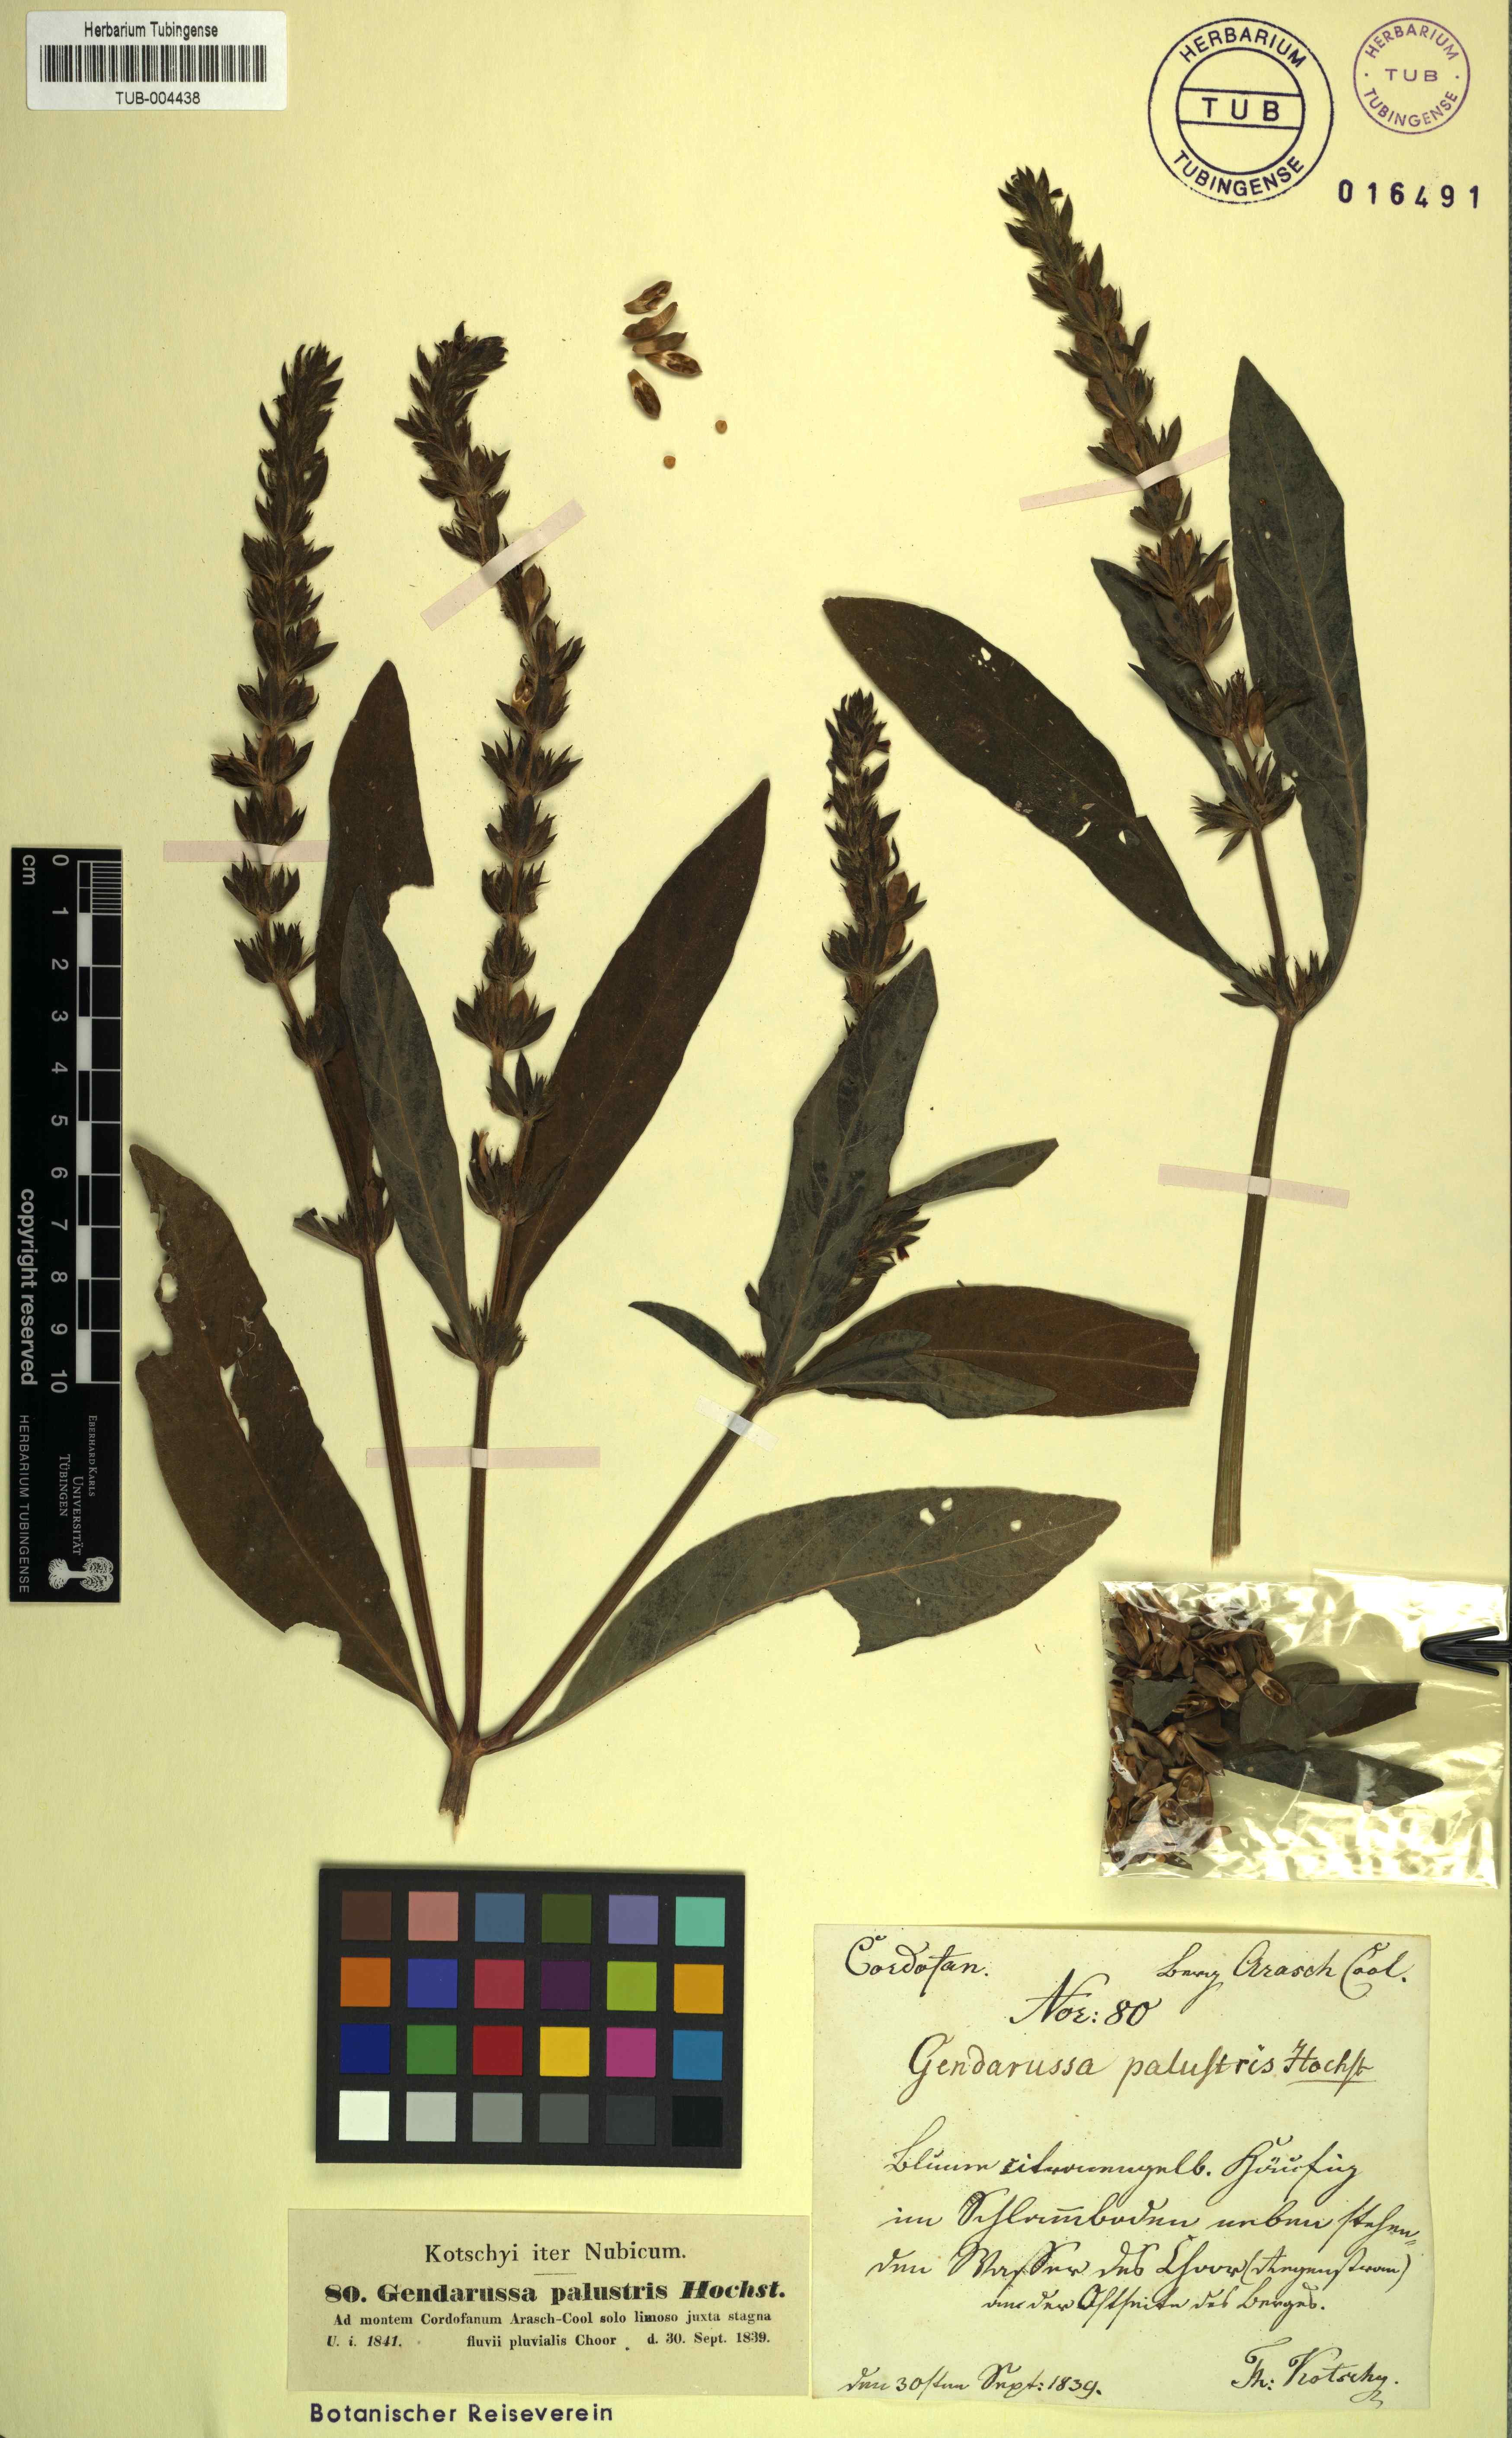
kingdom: Plantae
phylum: Tracheophyta
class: Magnoliopsida
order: Lamiales
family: Acanthaceae
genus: Justicia
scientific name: Justicia flava
